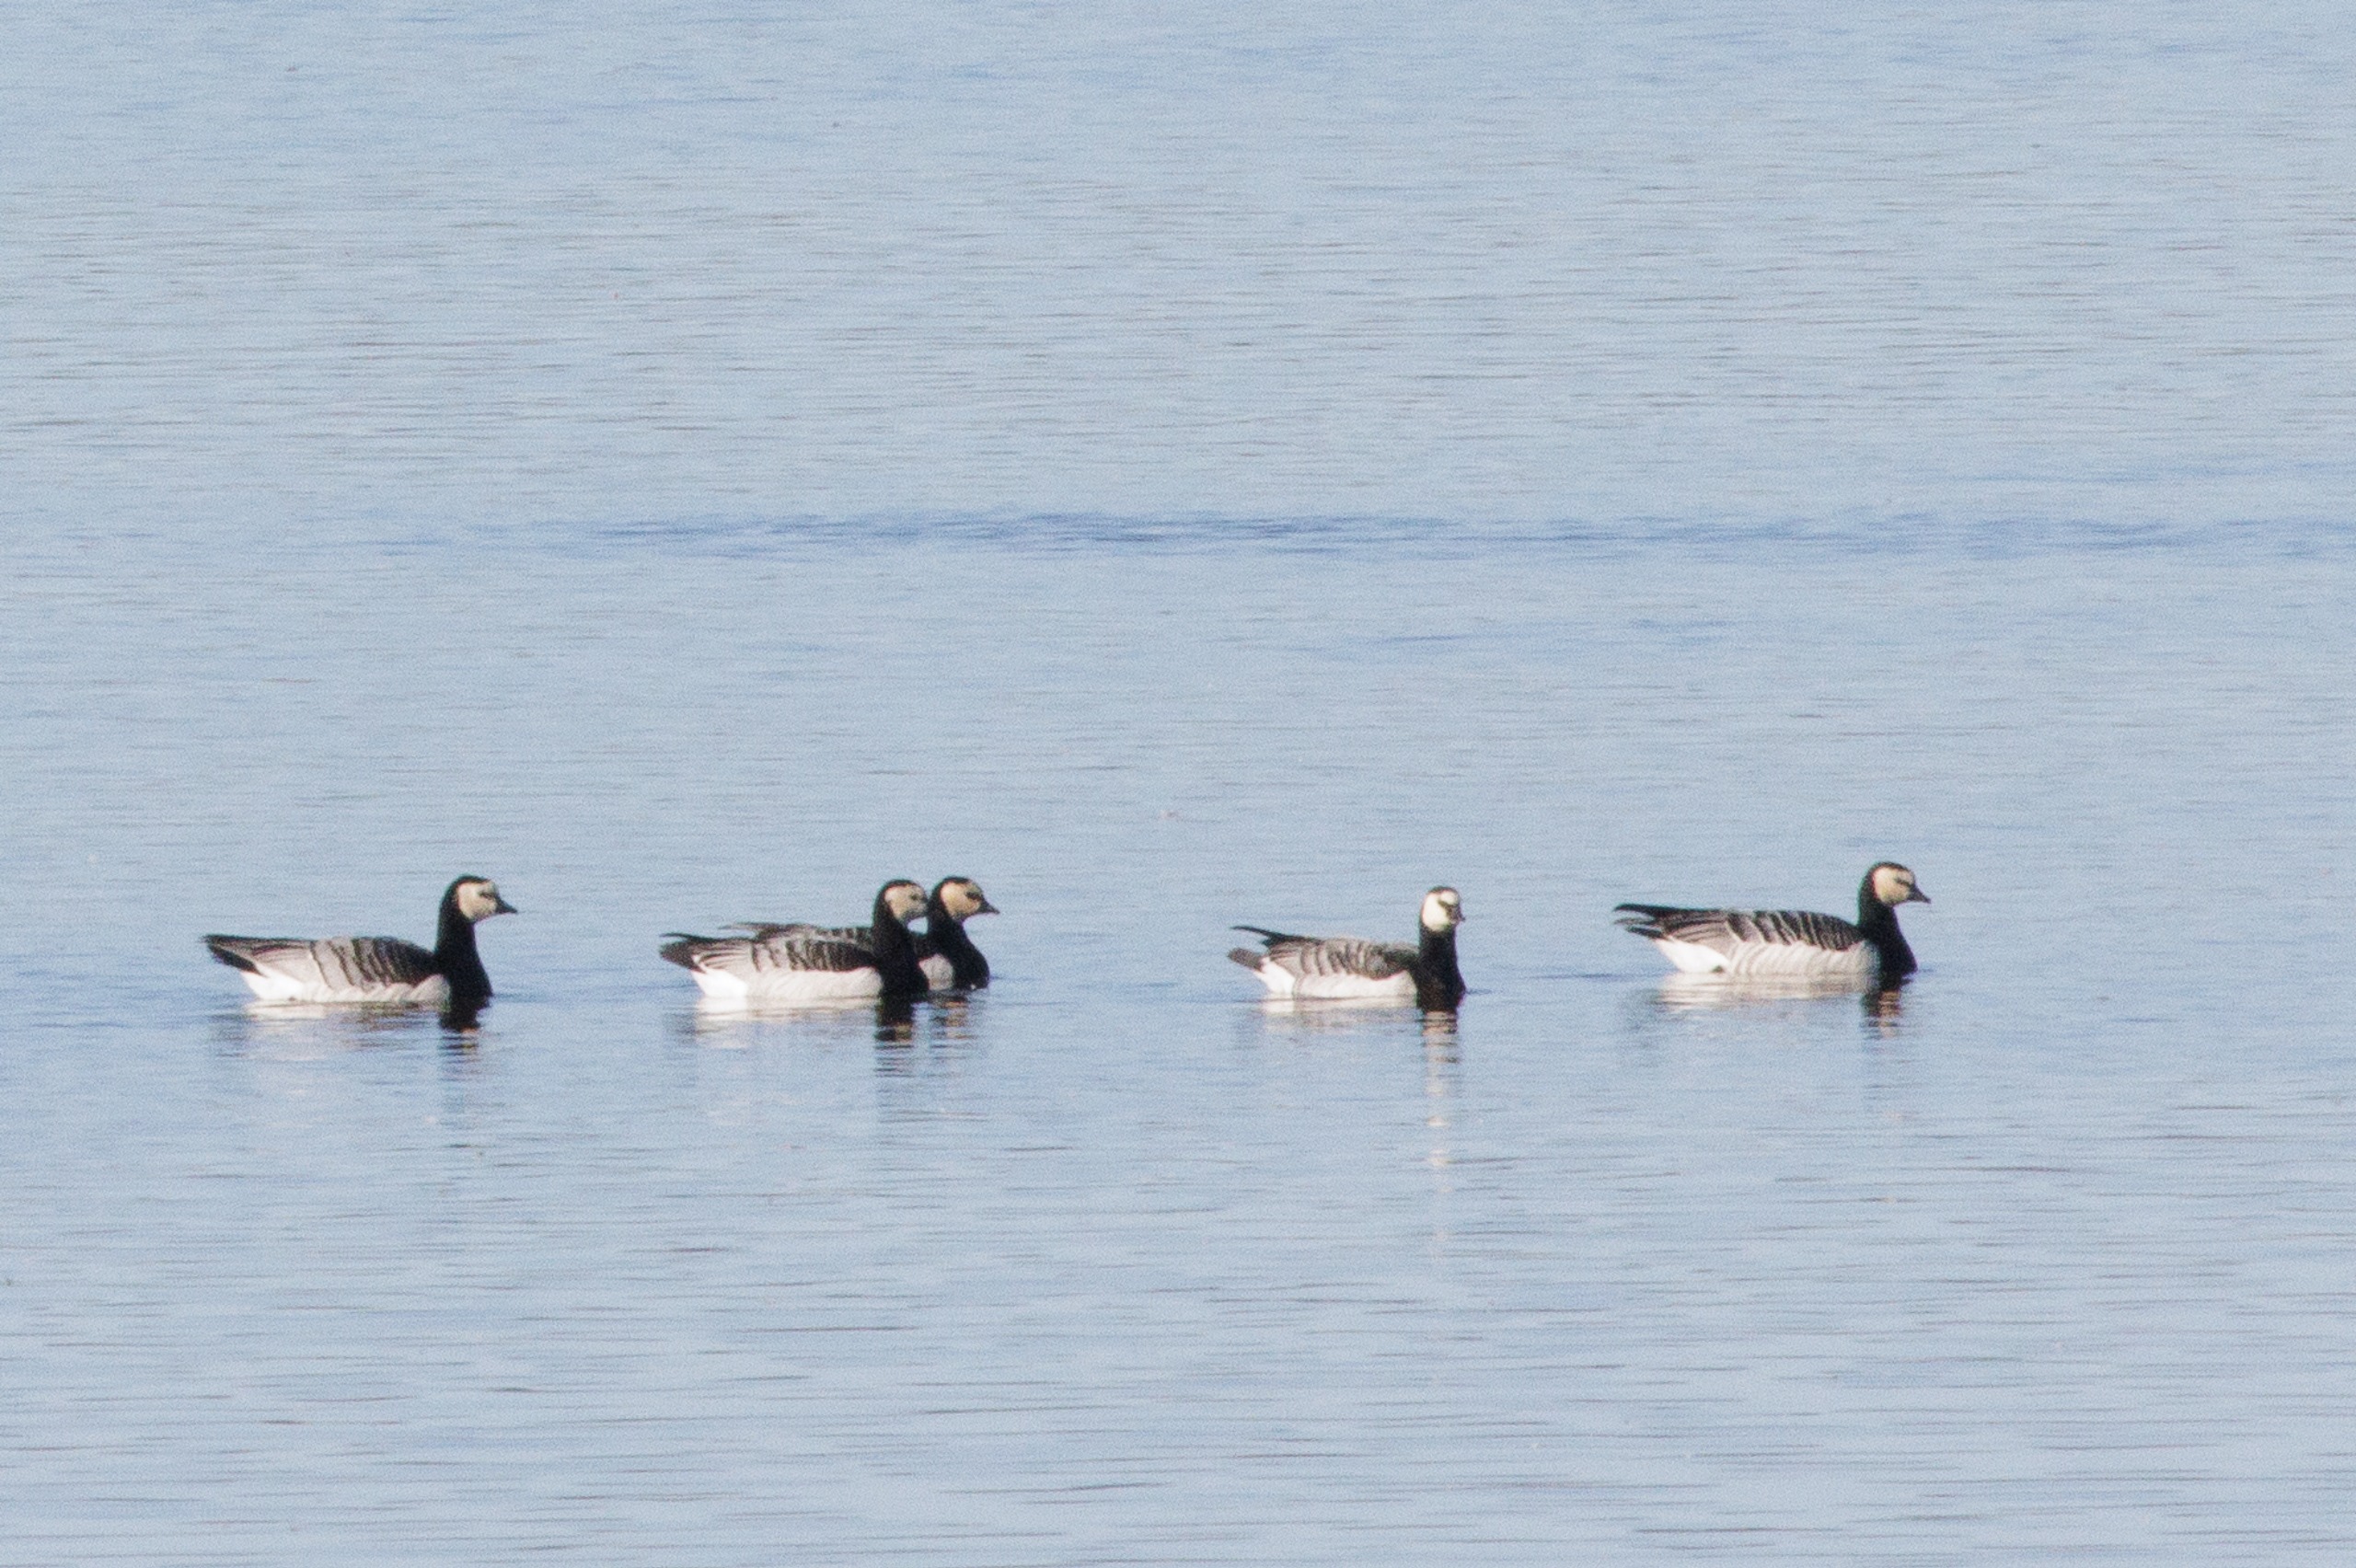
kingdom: Animalia
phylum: Chordata
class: Aves
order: Anseriformes
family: Anatidae
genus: Branta
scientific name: Branta leucopsis
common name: Bramgås
